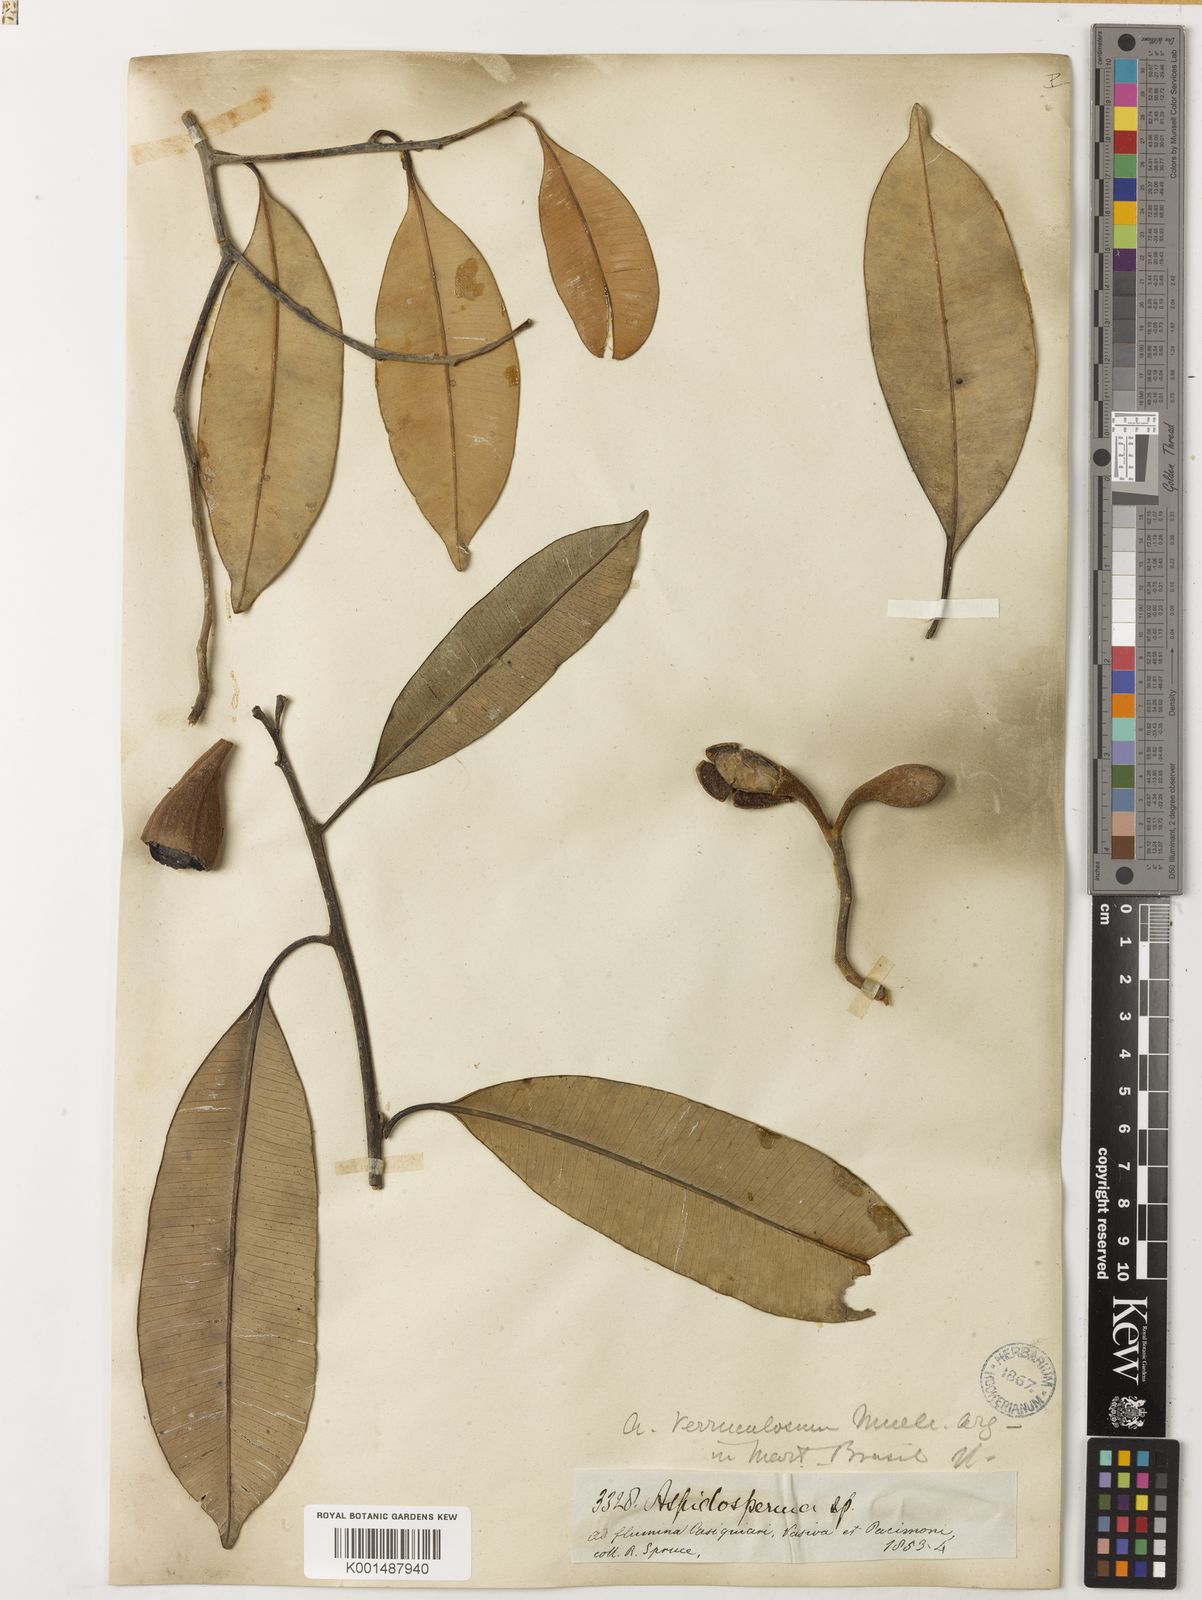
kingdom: Plantae
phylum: Tracheophyta
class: Magnoliopsida
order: Gentianales
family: Apocynaceae
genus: Aspidosperma
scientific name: Aspidosperma verruculosum
